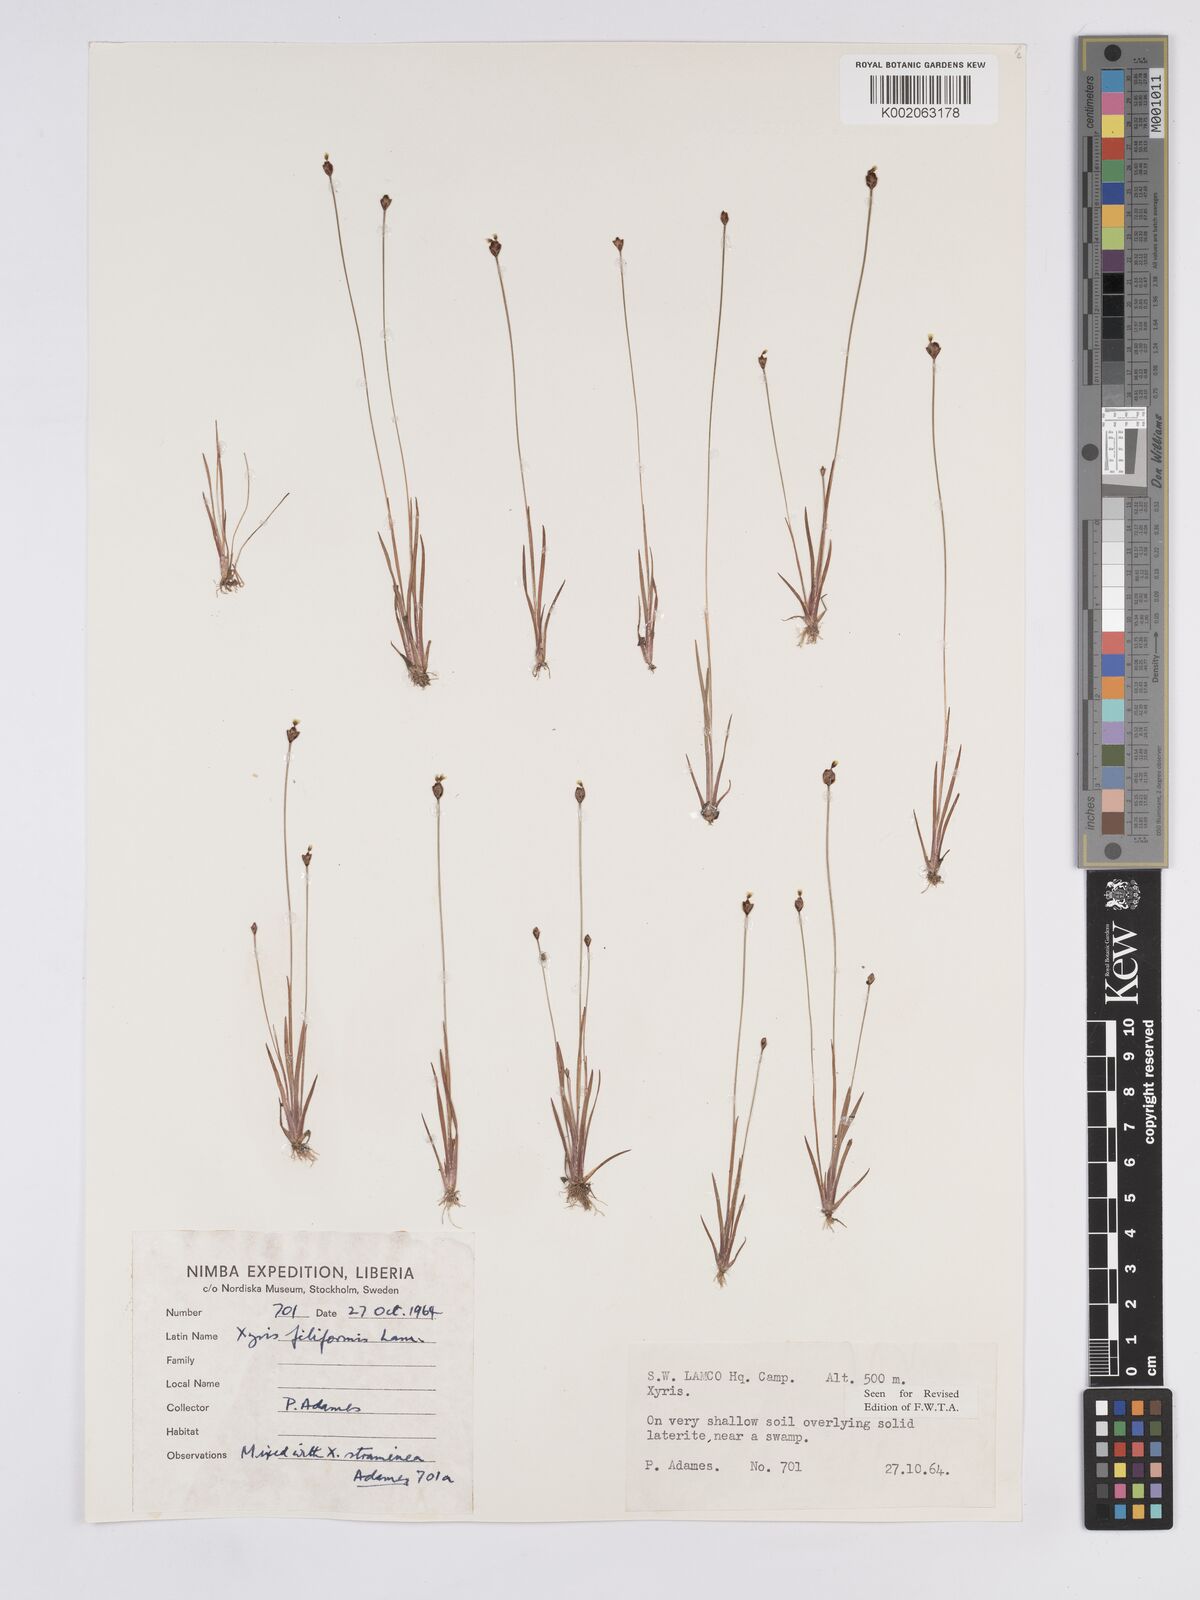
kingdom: Plantae
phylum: Tracheophyta
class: Liliopsida
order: Poales
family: Xyridaceae
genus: Xyris
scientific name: Xyris filiformis
